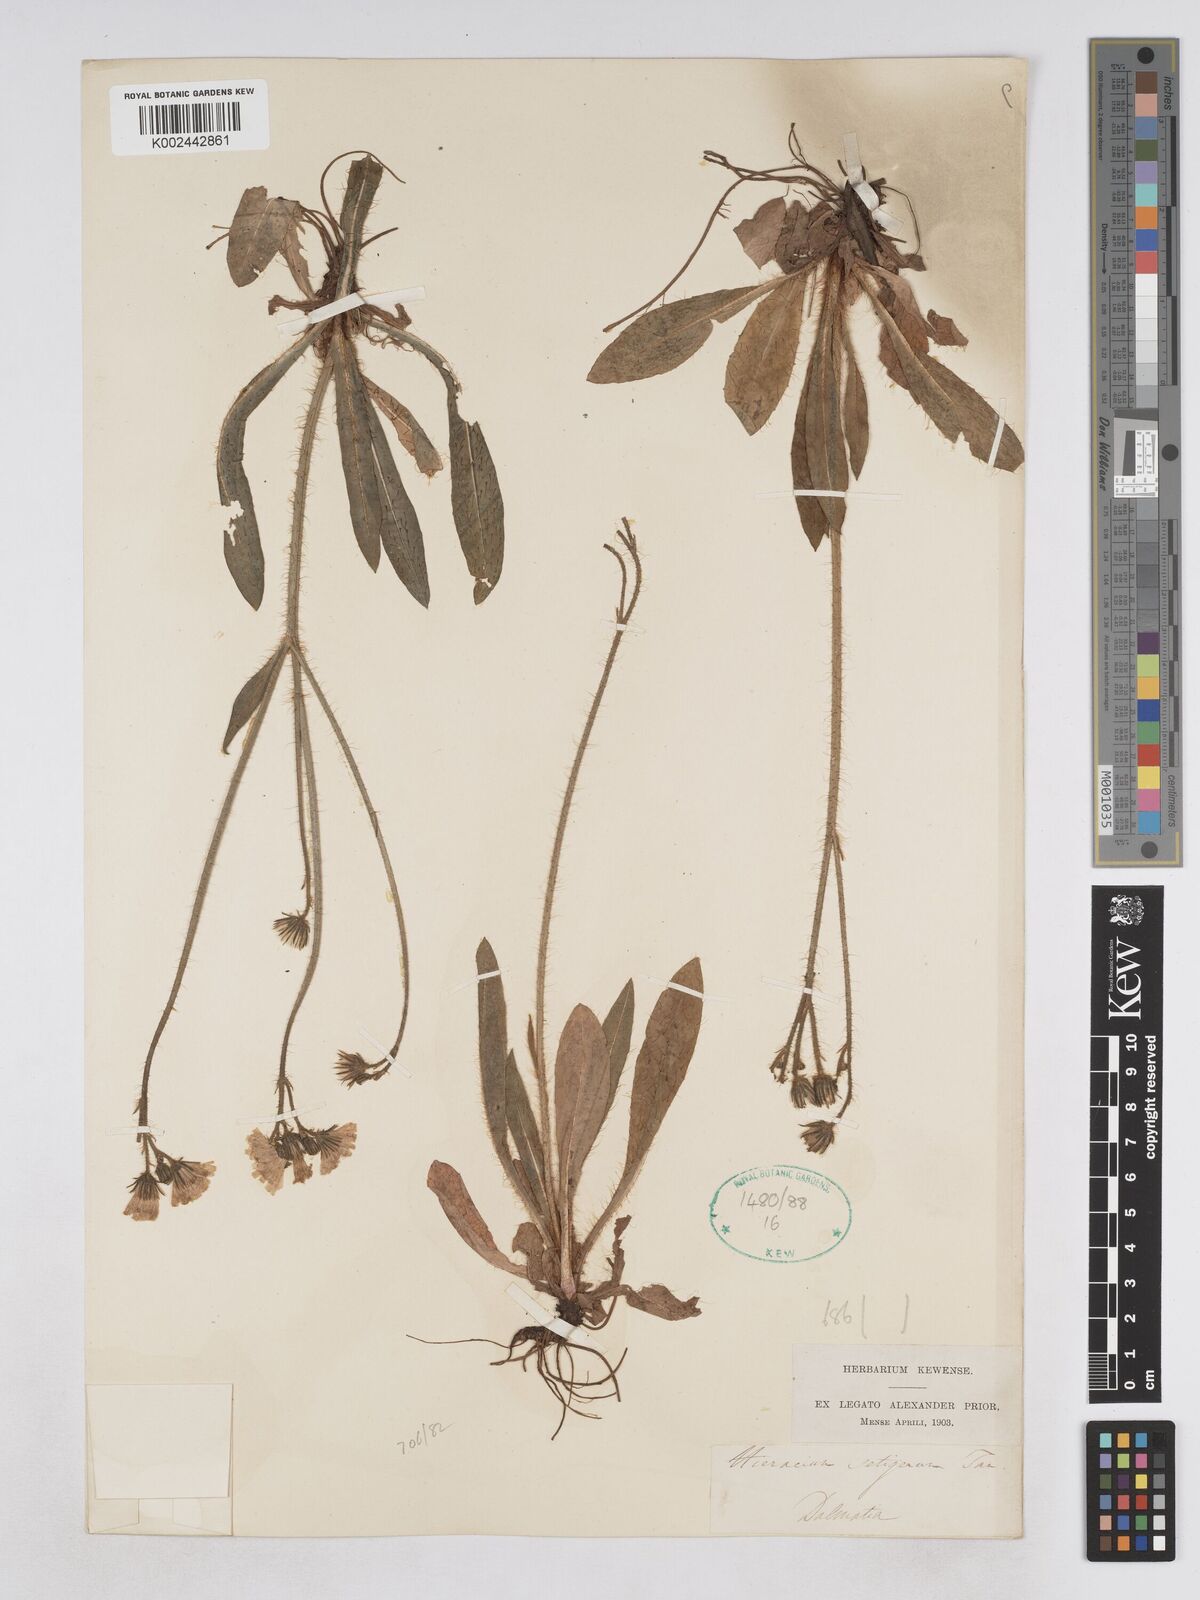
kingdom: Plantae
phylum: Tracheophyta
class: Magnoliopsida
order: Asterales
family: Asteraceae
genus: Pilosella
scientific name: Pilosella bifurca
